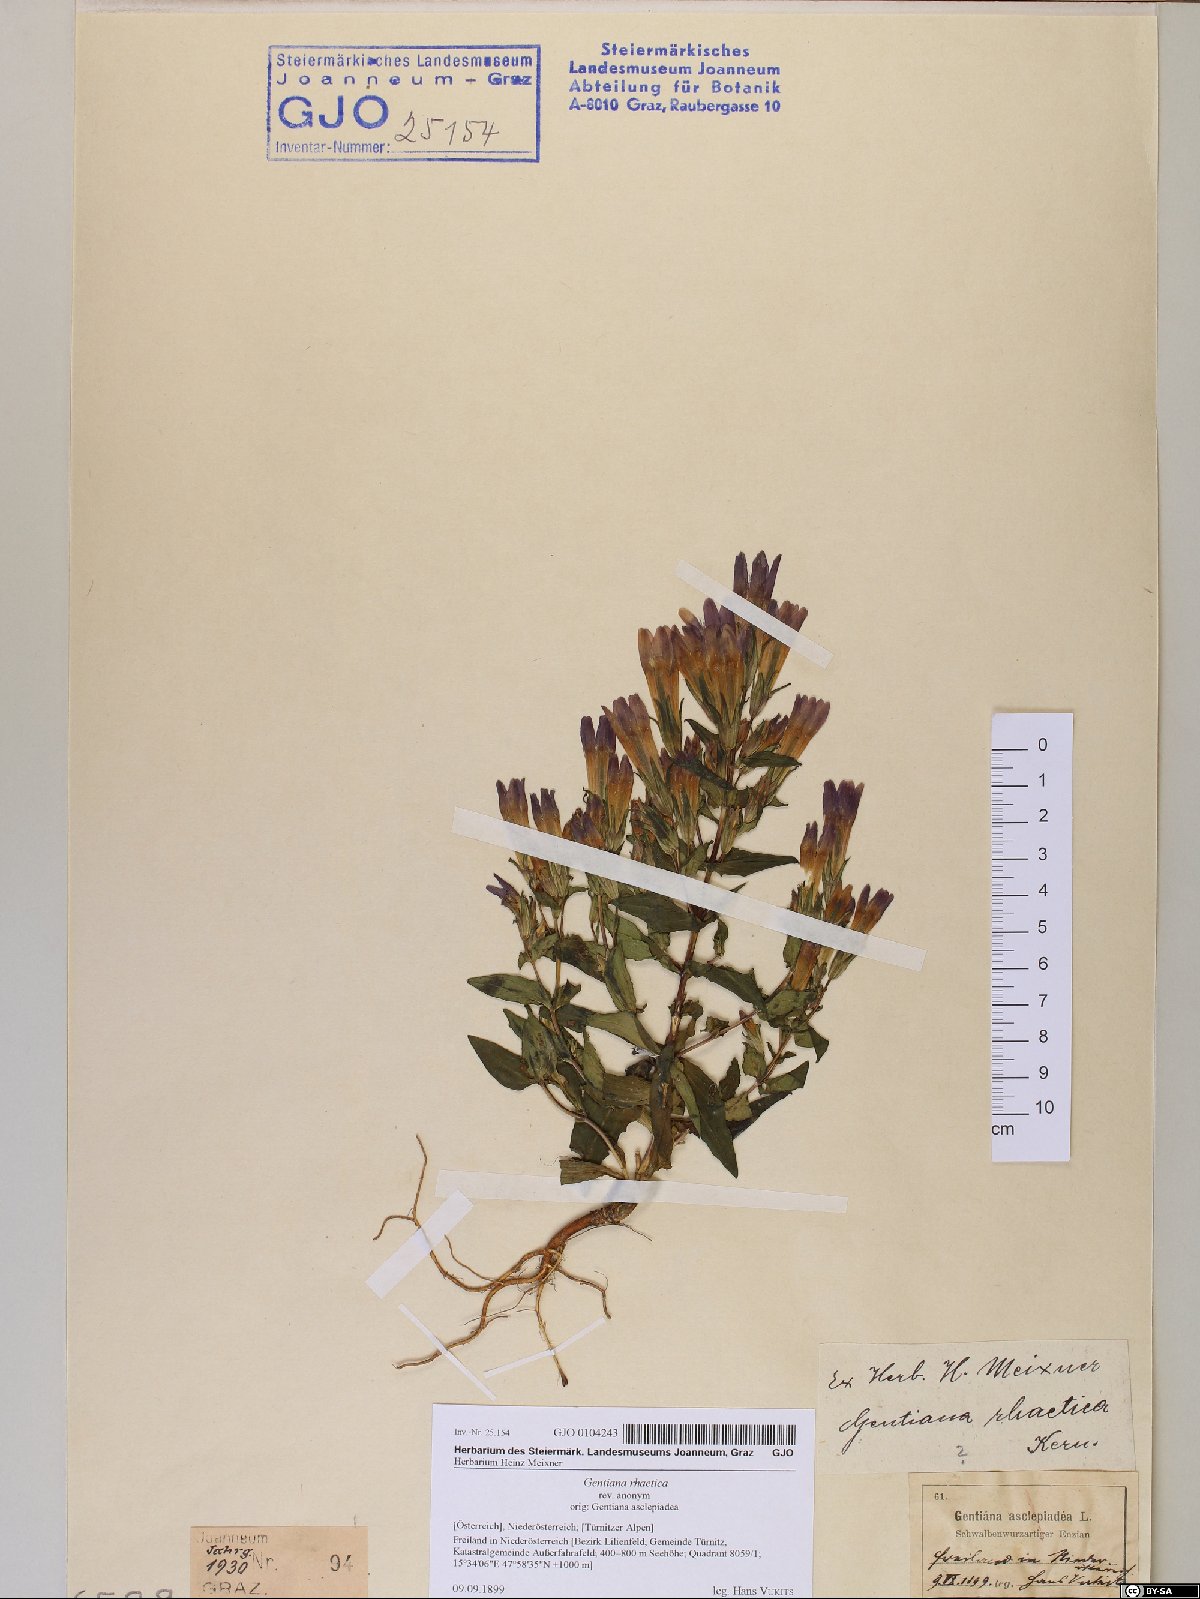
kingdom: Plantae
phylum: Tracheophyta
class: Magnoliopsida
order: Gentianales
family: Gentianaceae
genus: Gentianella
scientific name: Gentianella rhaetica
